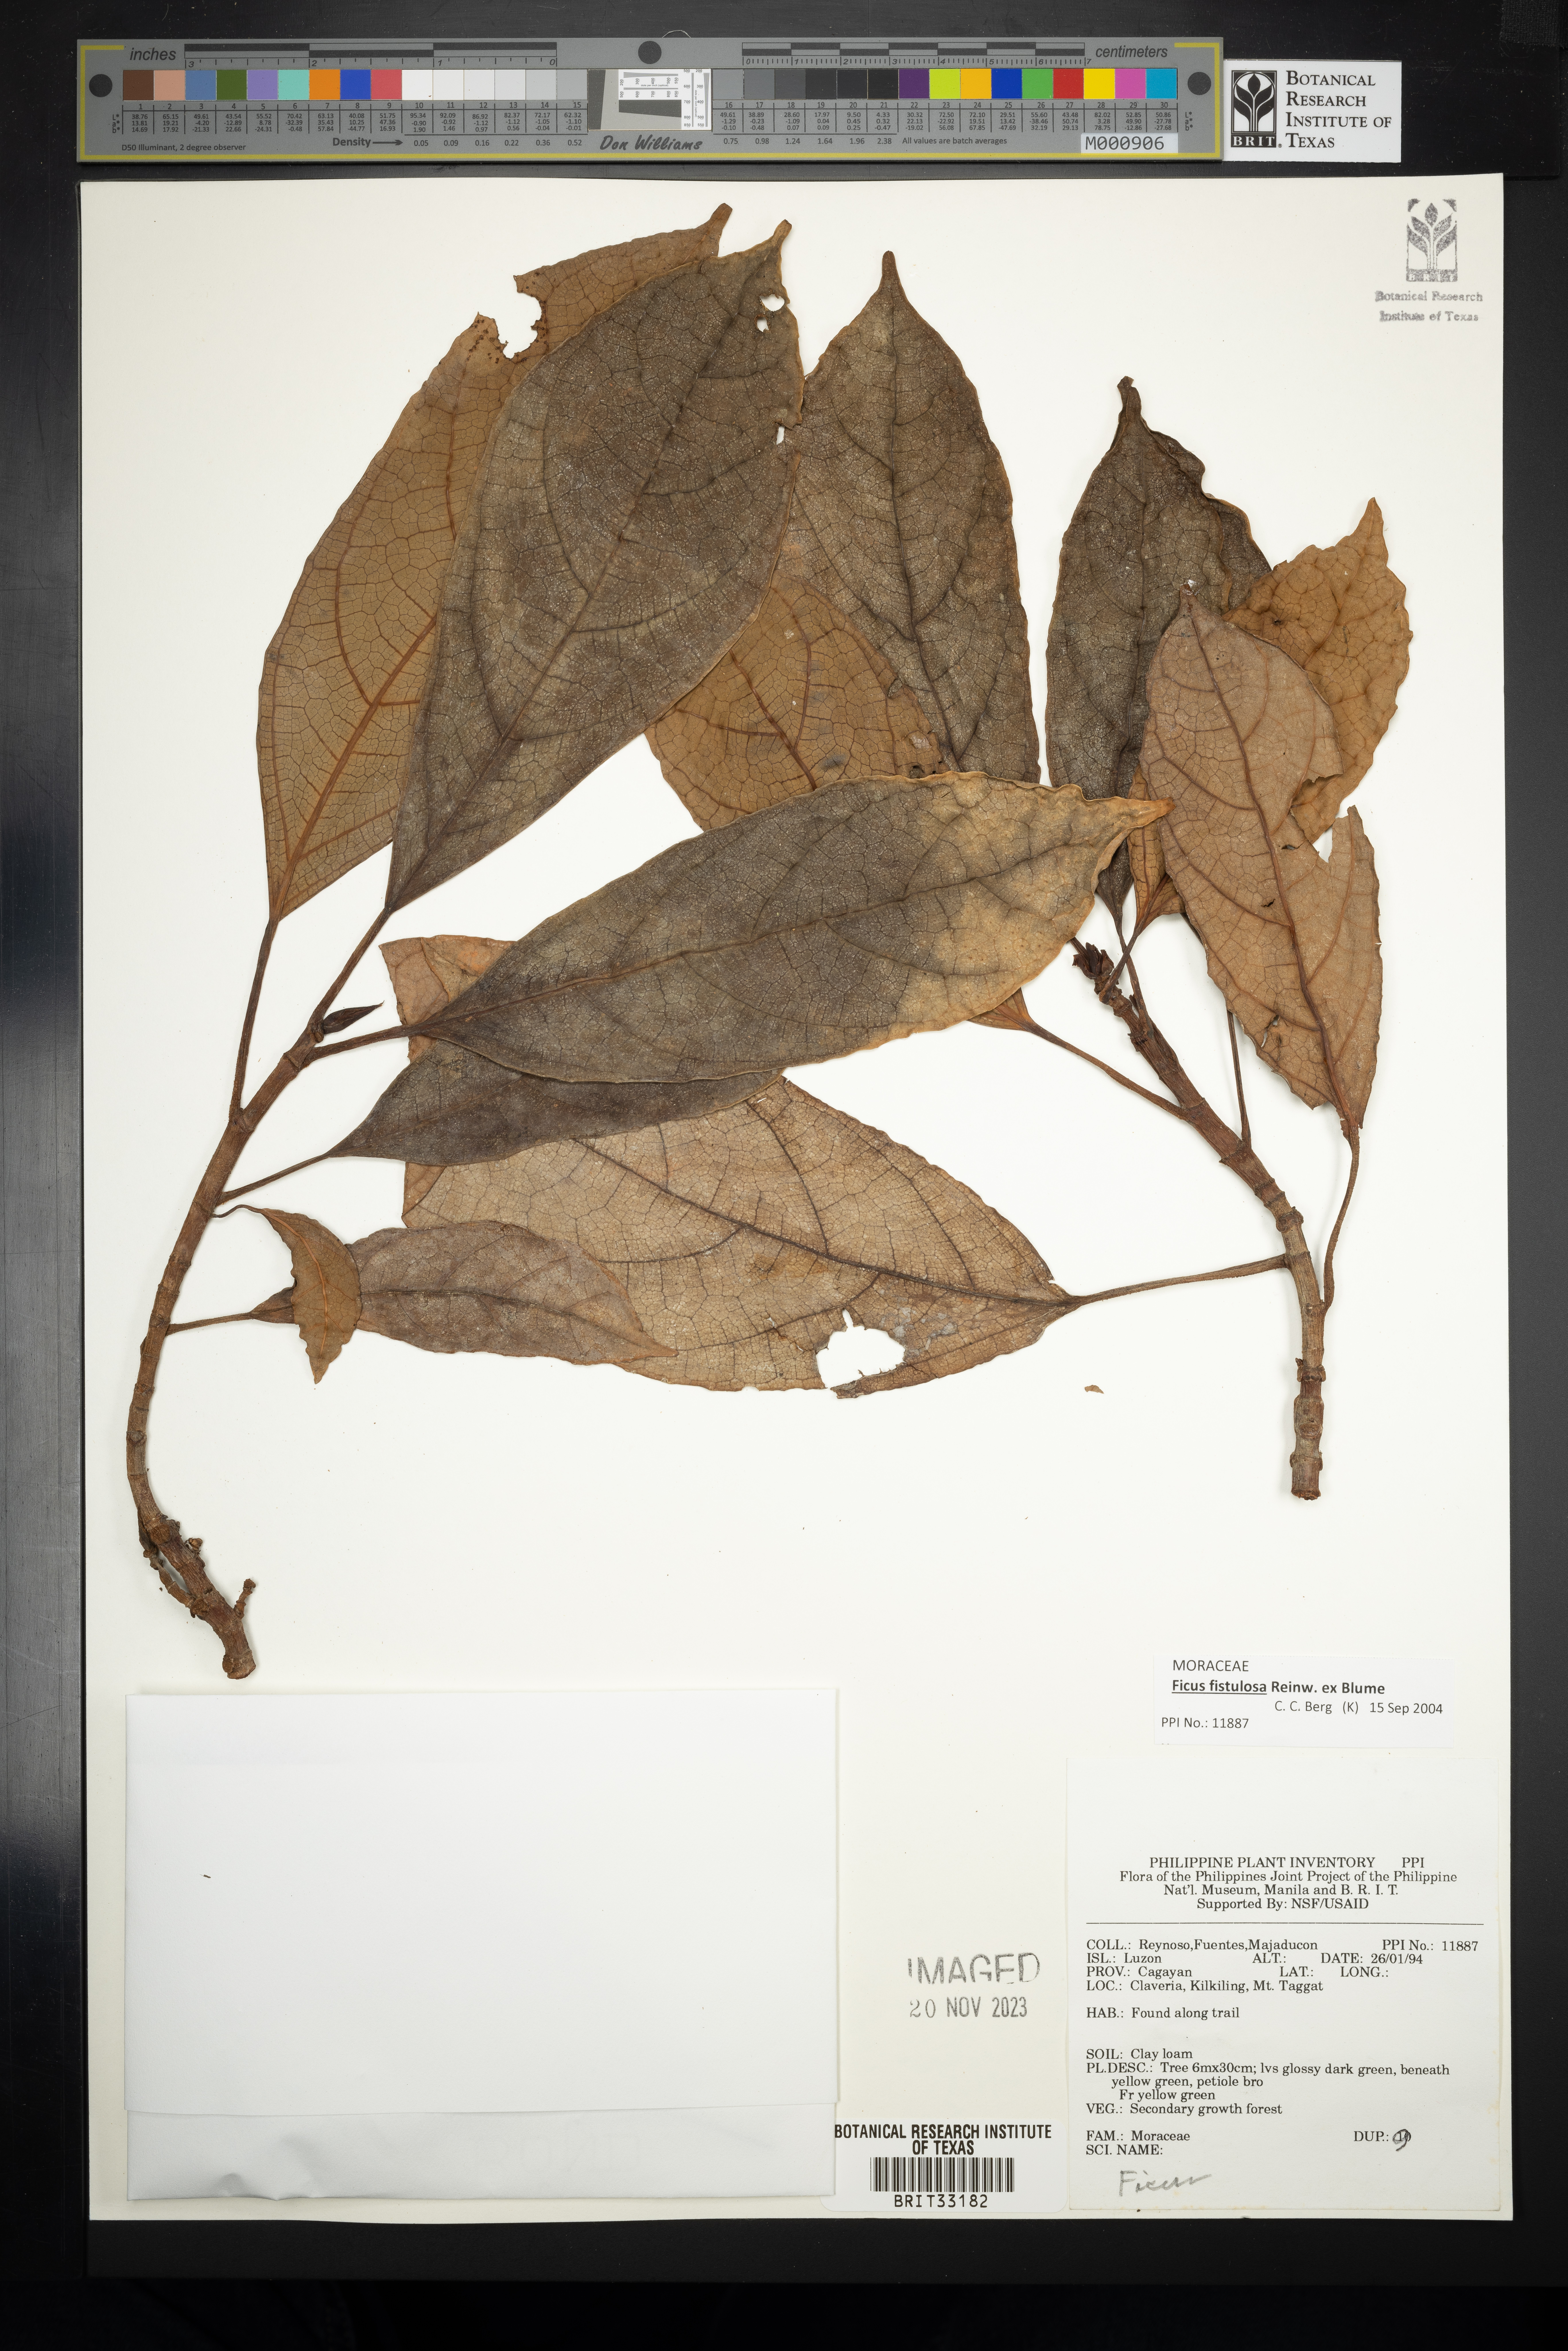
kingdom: Plantae
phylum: Tracheophyta
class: Magnoliopsida
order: Rosales
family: Moraceae
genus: Ficus
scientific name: Ficus
